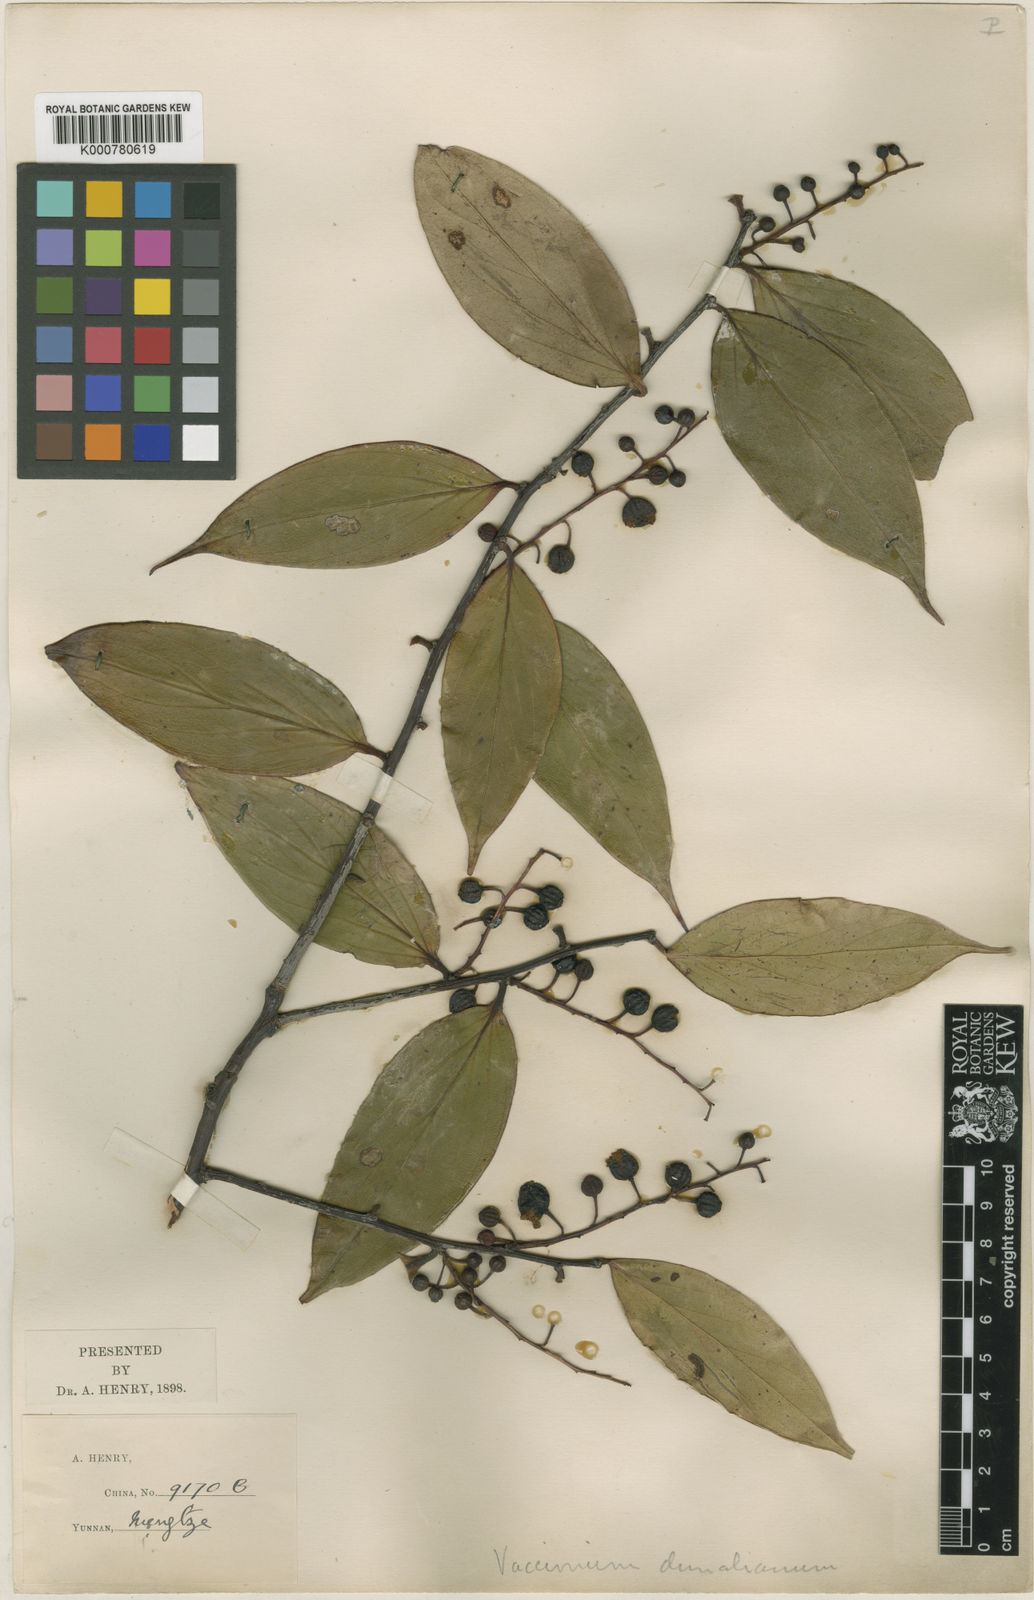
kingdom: Plantae
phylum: Tracheophyta
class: Magnoliopsida
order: Ericales
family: Ericaceae
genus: Vaccinium
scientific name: Vaccinium dunalianum
